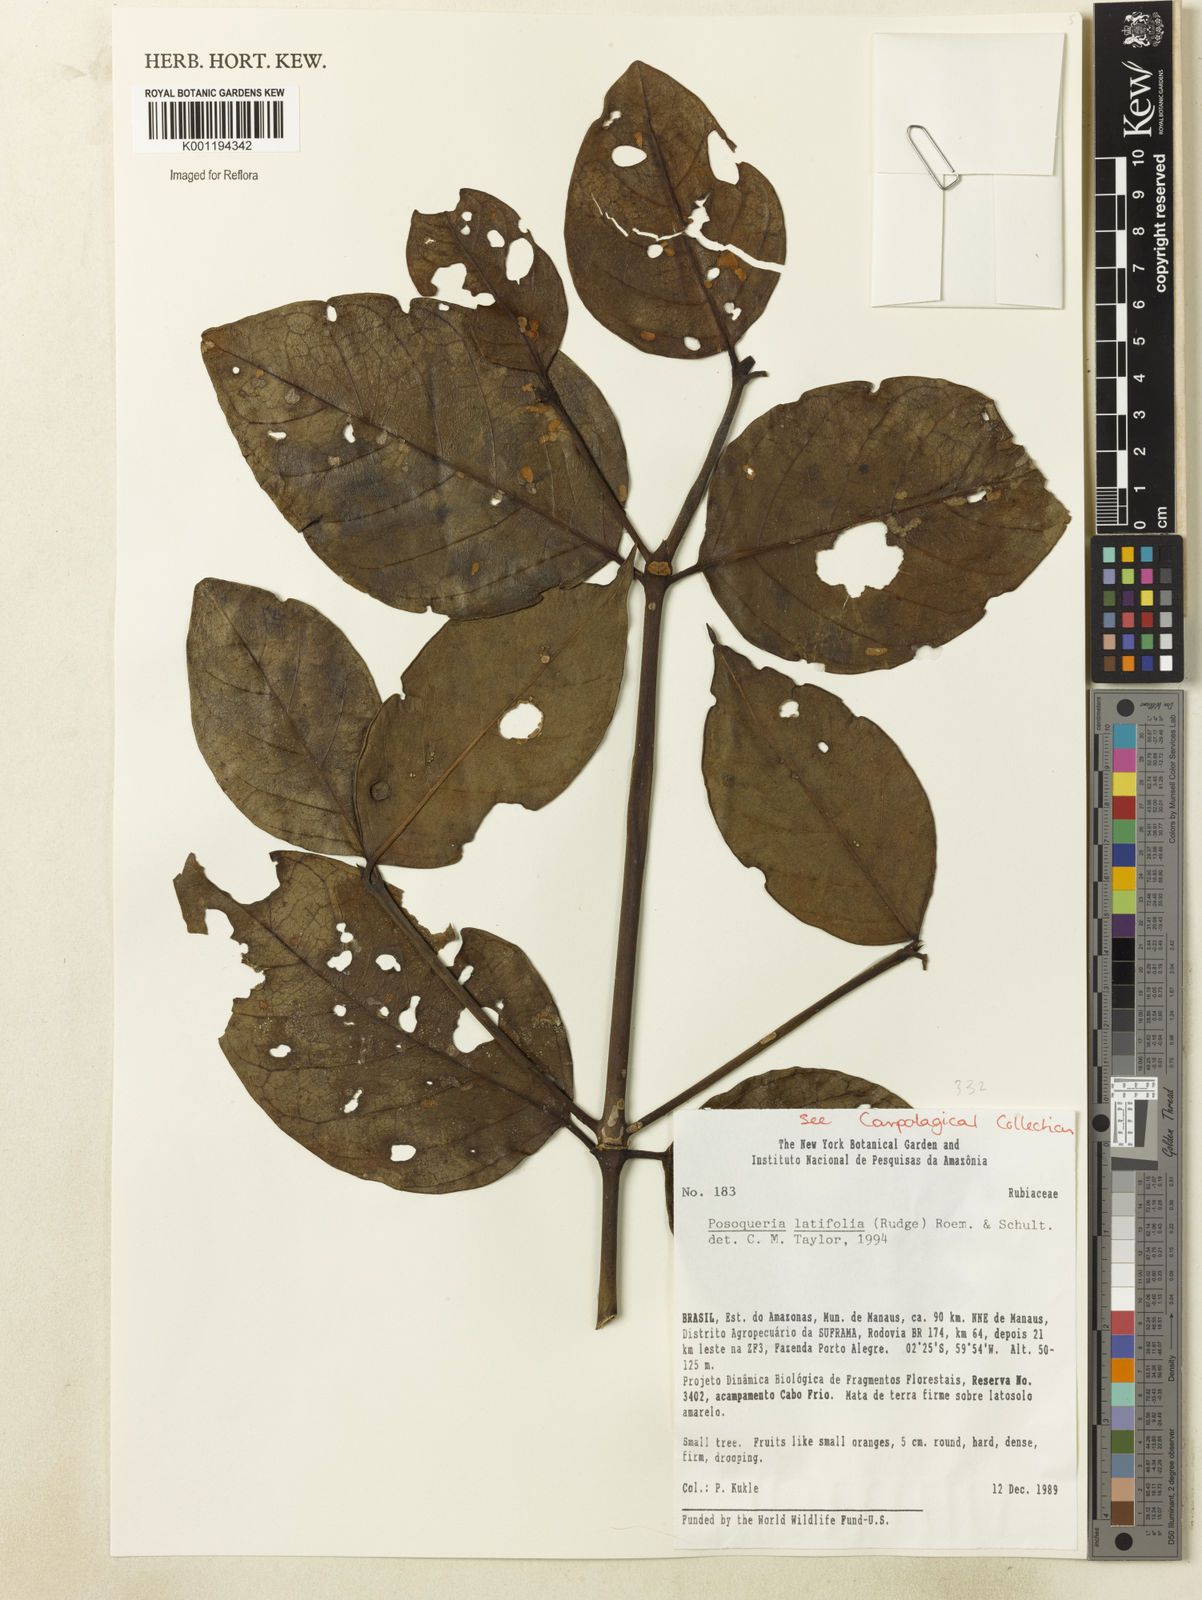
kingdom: Plantae
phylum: Tracheophyta
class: Magnoliopsida
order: Gentianales
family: Rubiaceae
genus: Posoqueria
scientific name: Posoqueria latifolia
